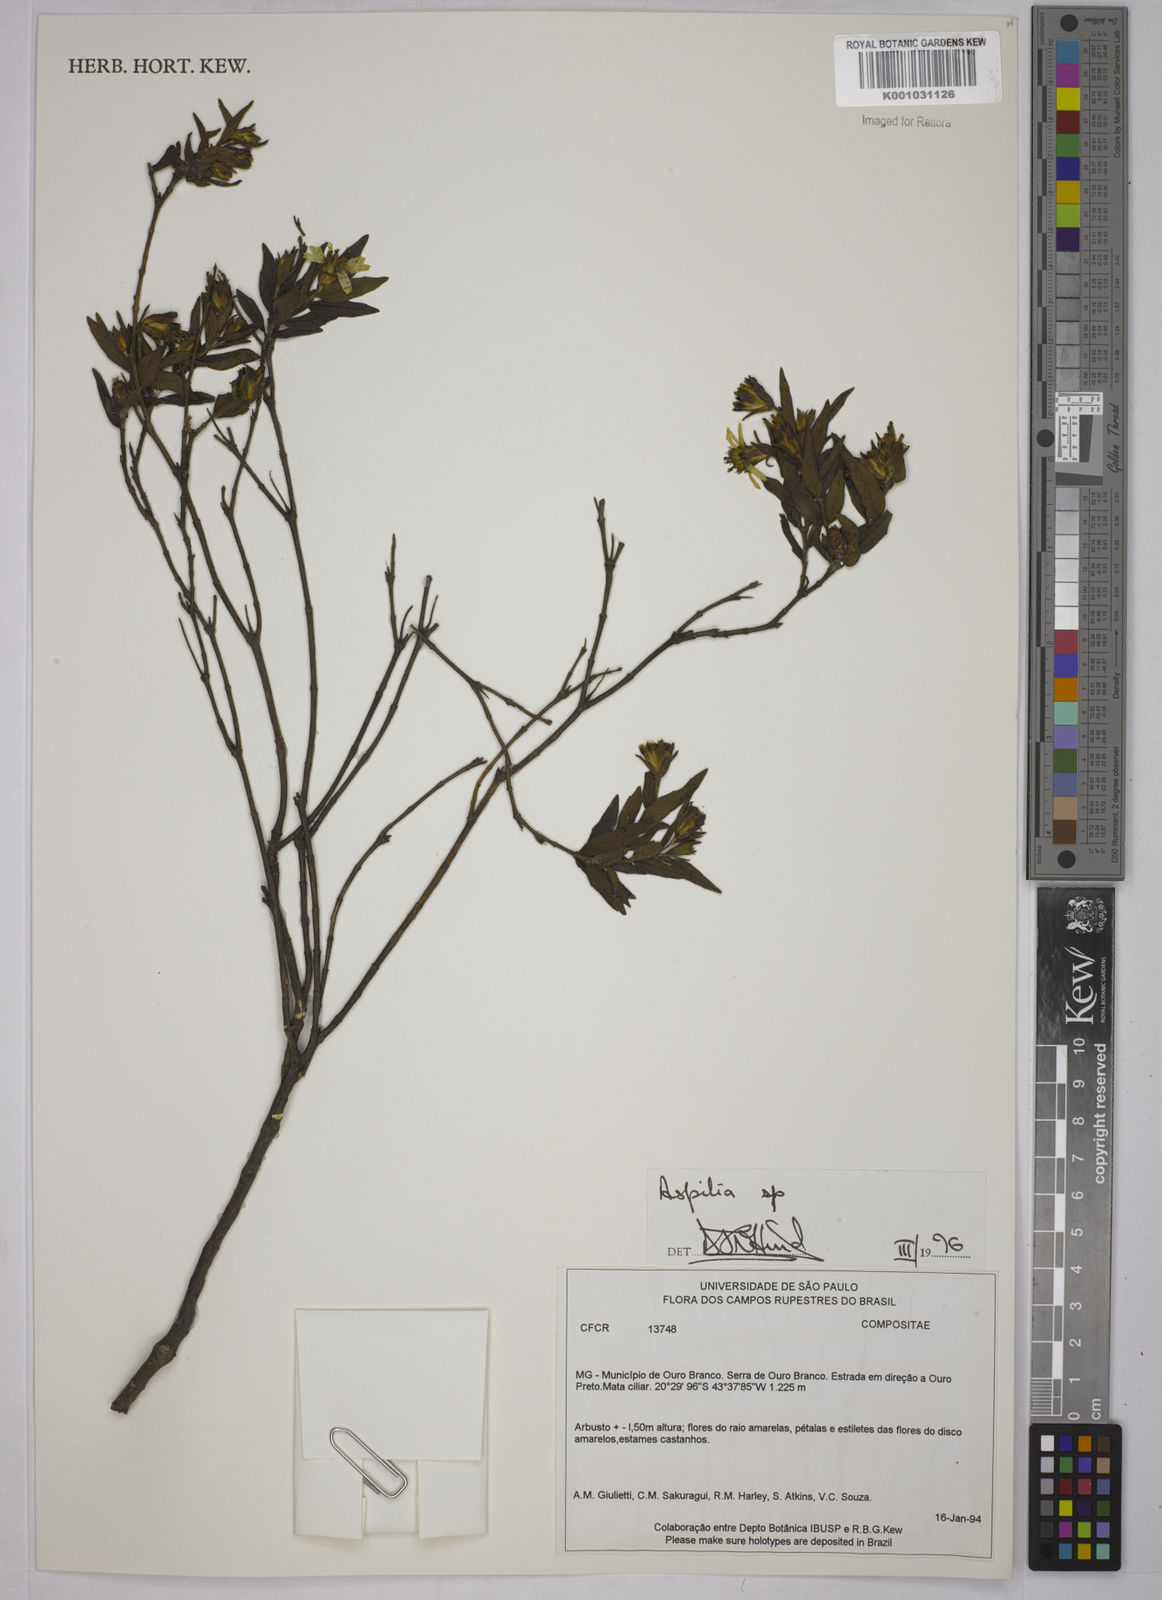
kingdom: Plantae
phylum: Tracheophyta
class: Magnoliopsida
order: Asterales
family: Asteraceae
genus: Aspilia
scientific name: Aspilia
